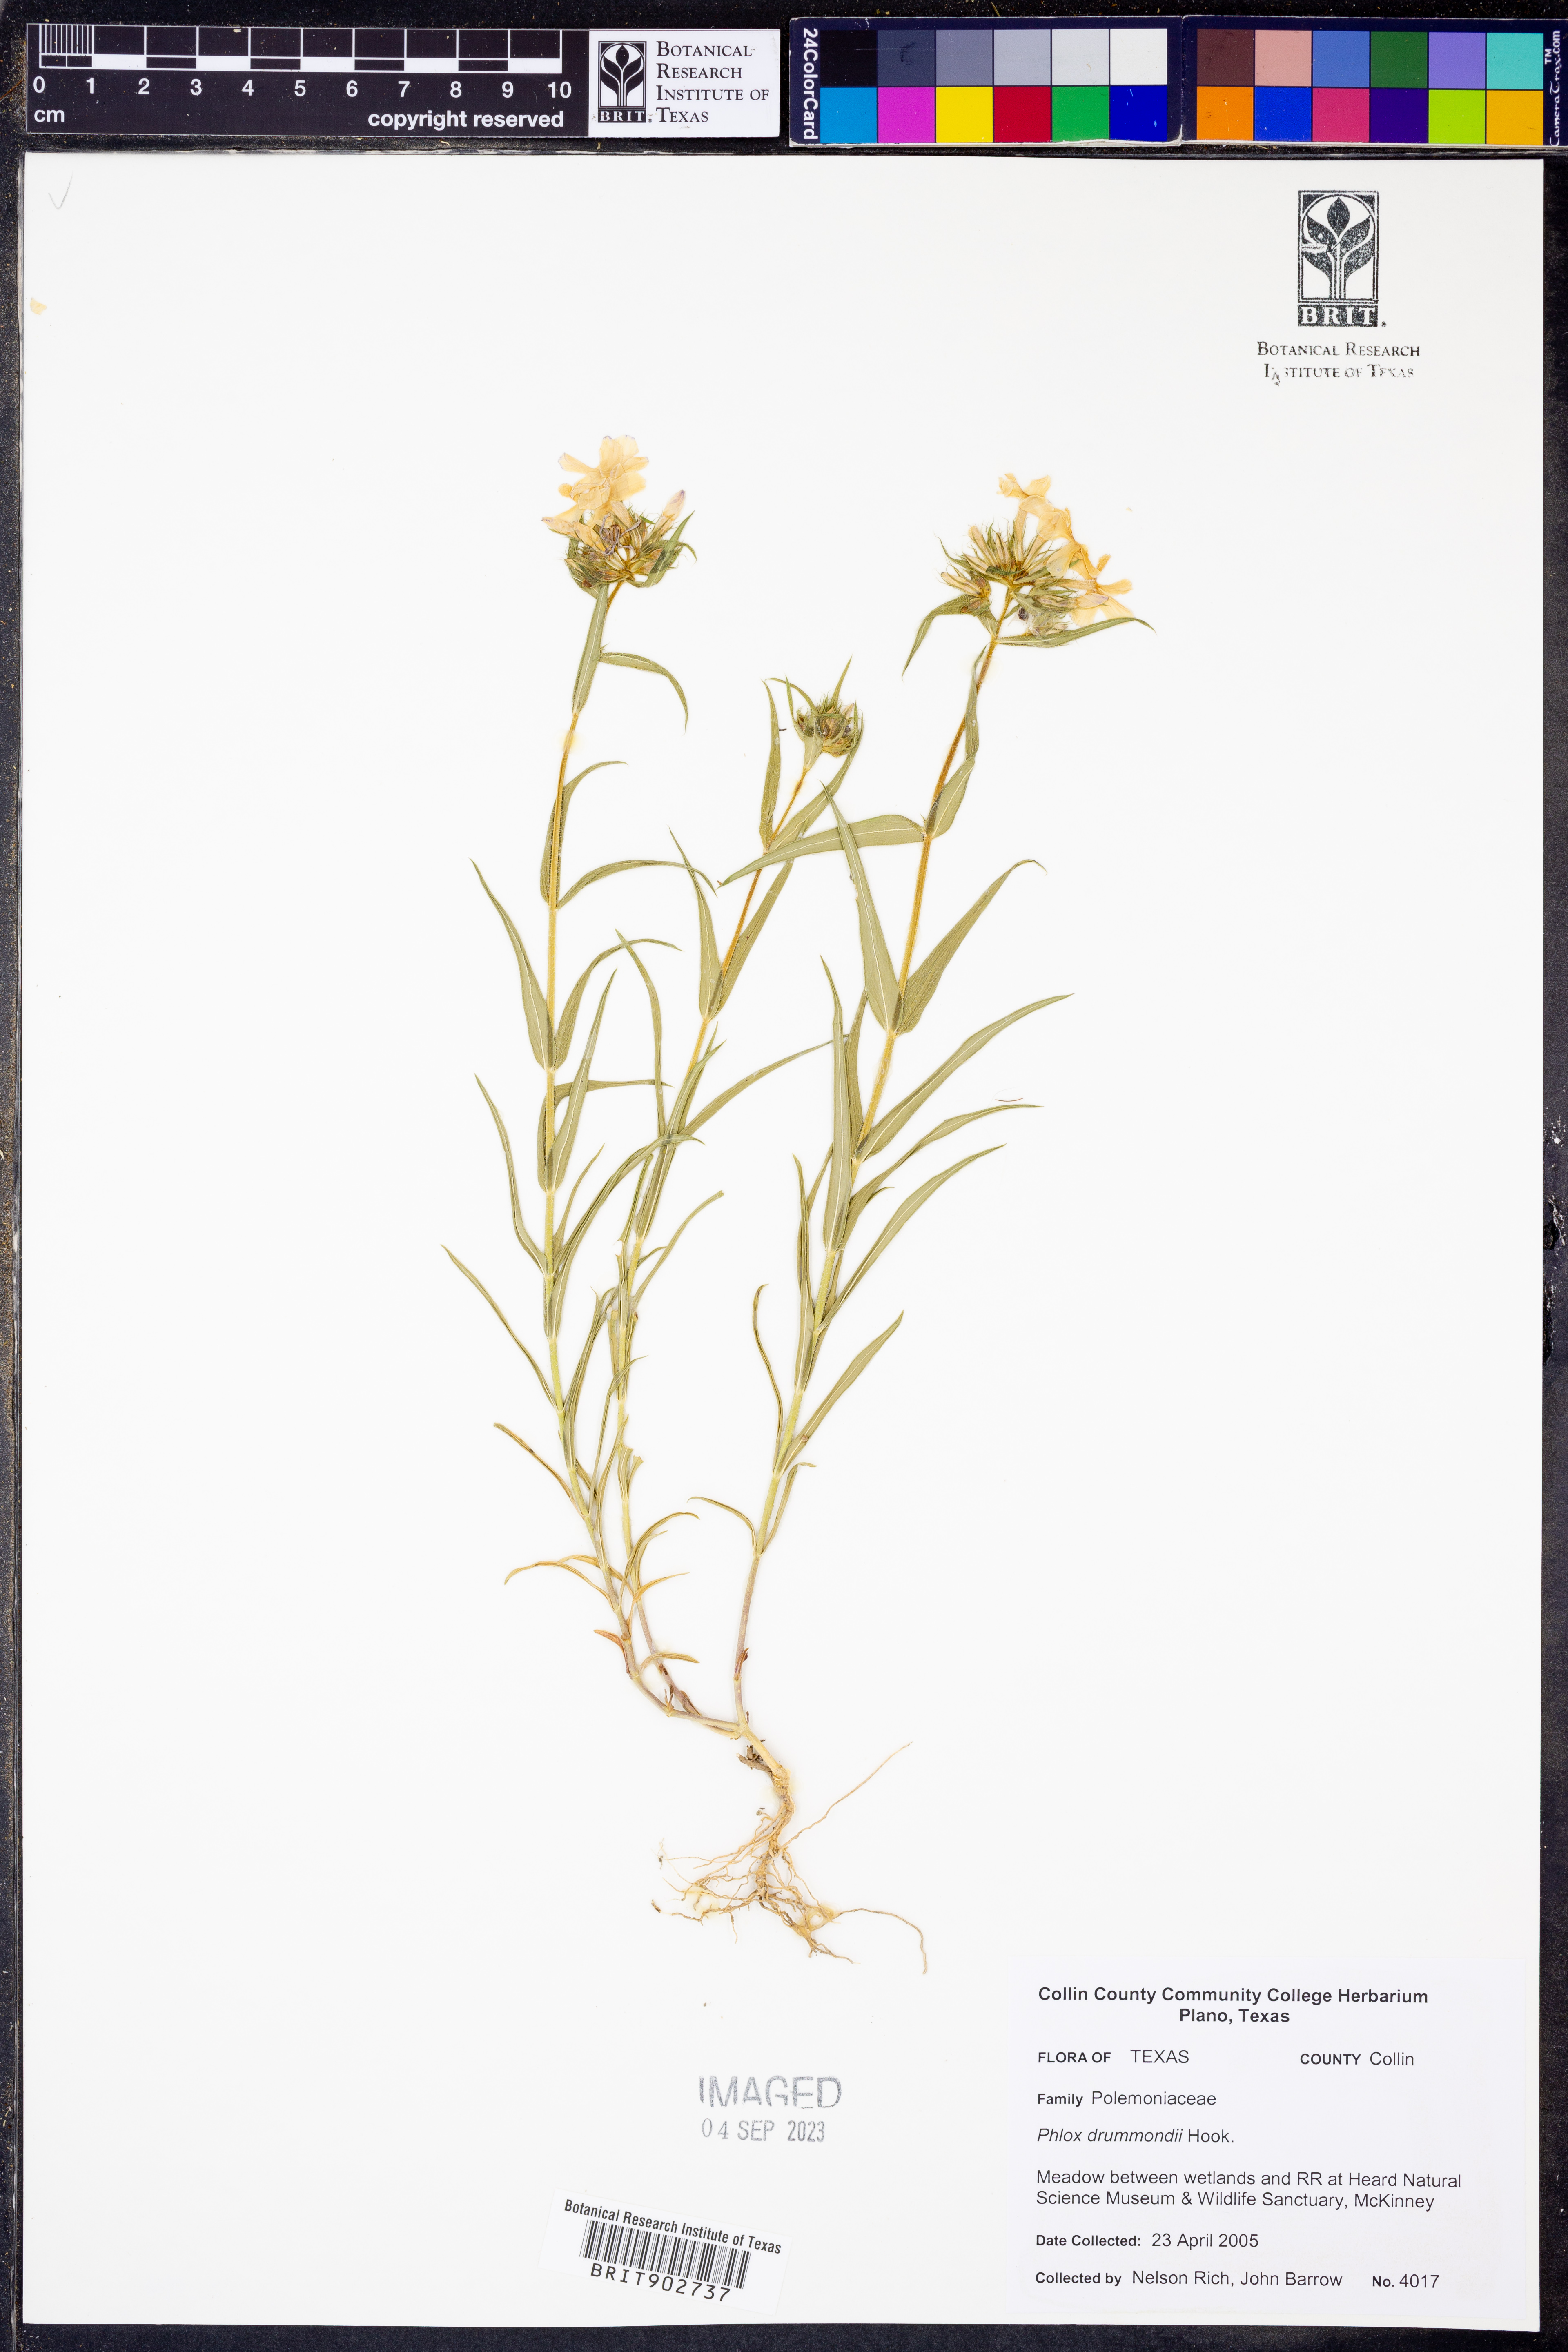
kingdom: Plantae
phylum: Tracheophyta
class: Magnoliopsida
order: Ericales
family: Polemoniaceae
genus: Phlox
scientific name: Phlox drummondii
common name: Drummond's phlox
